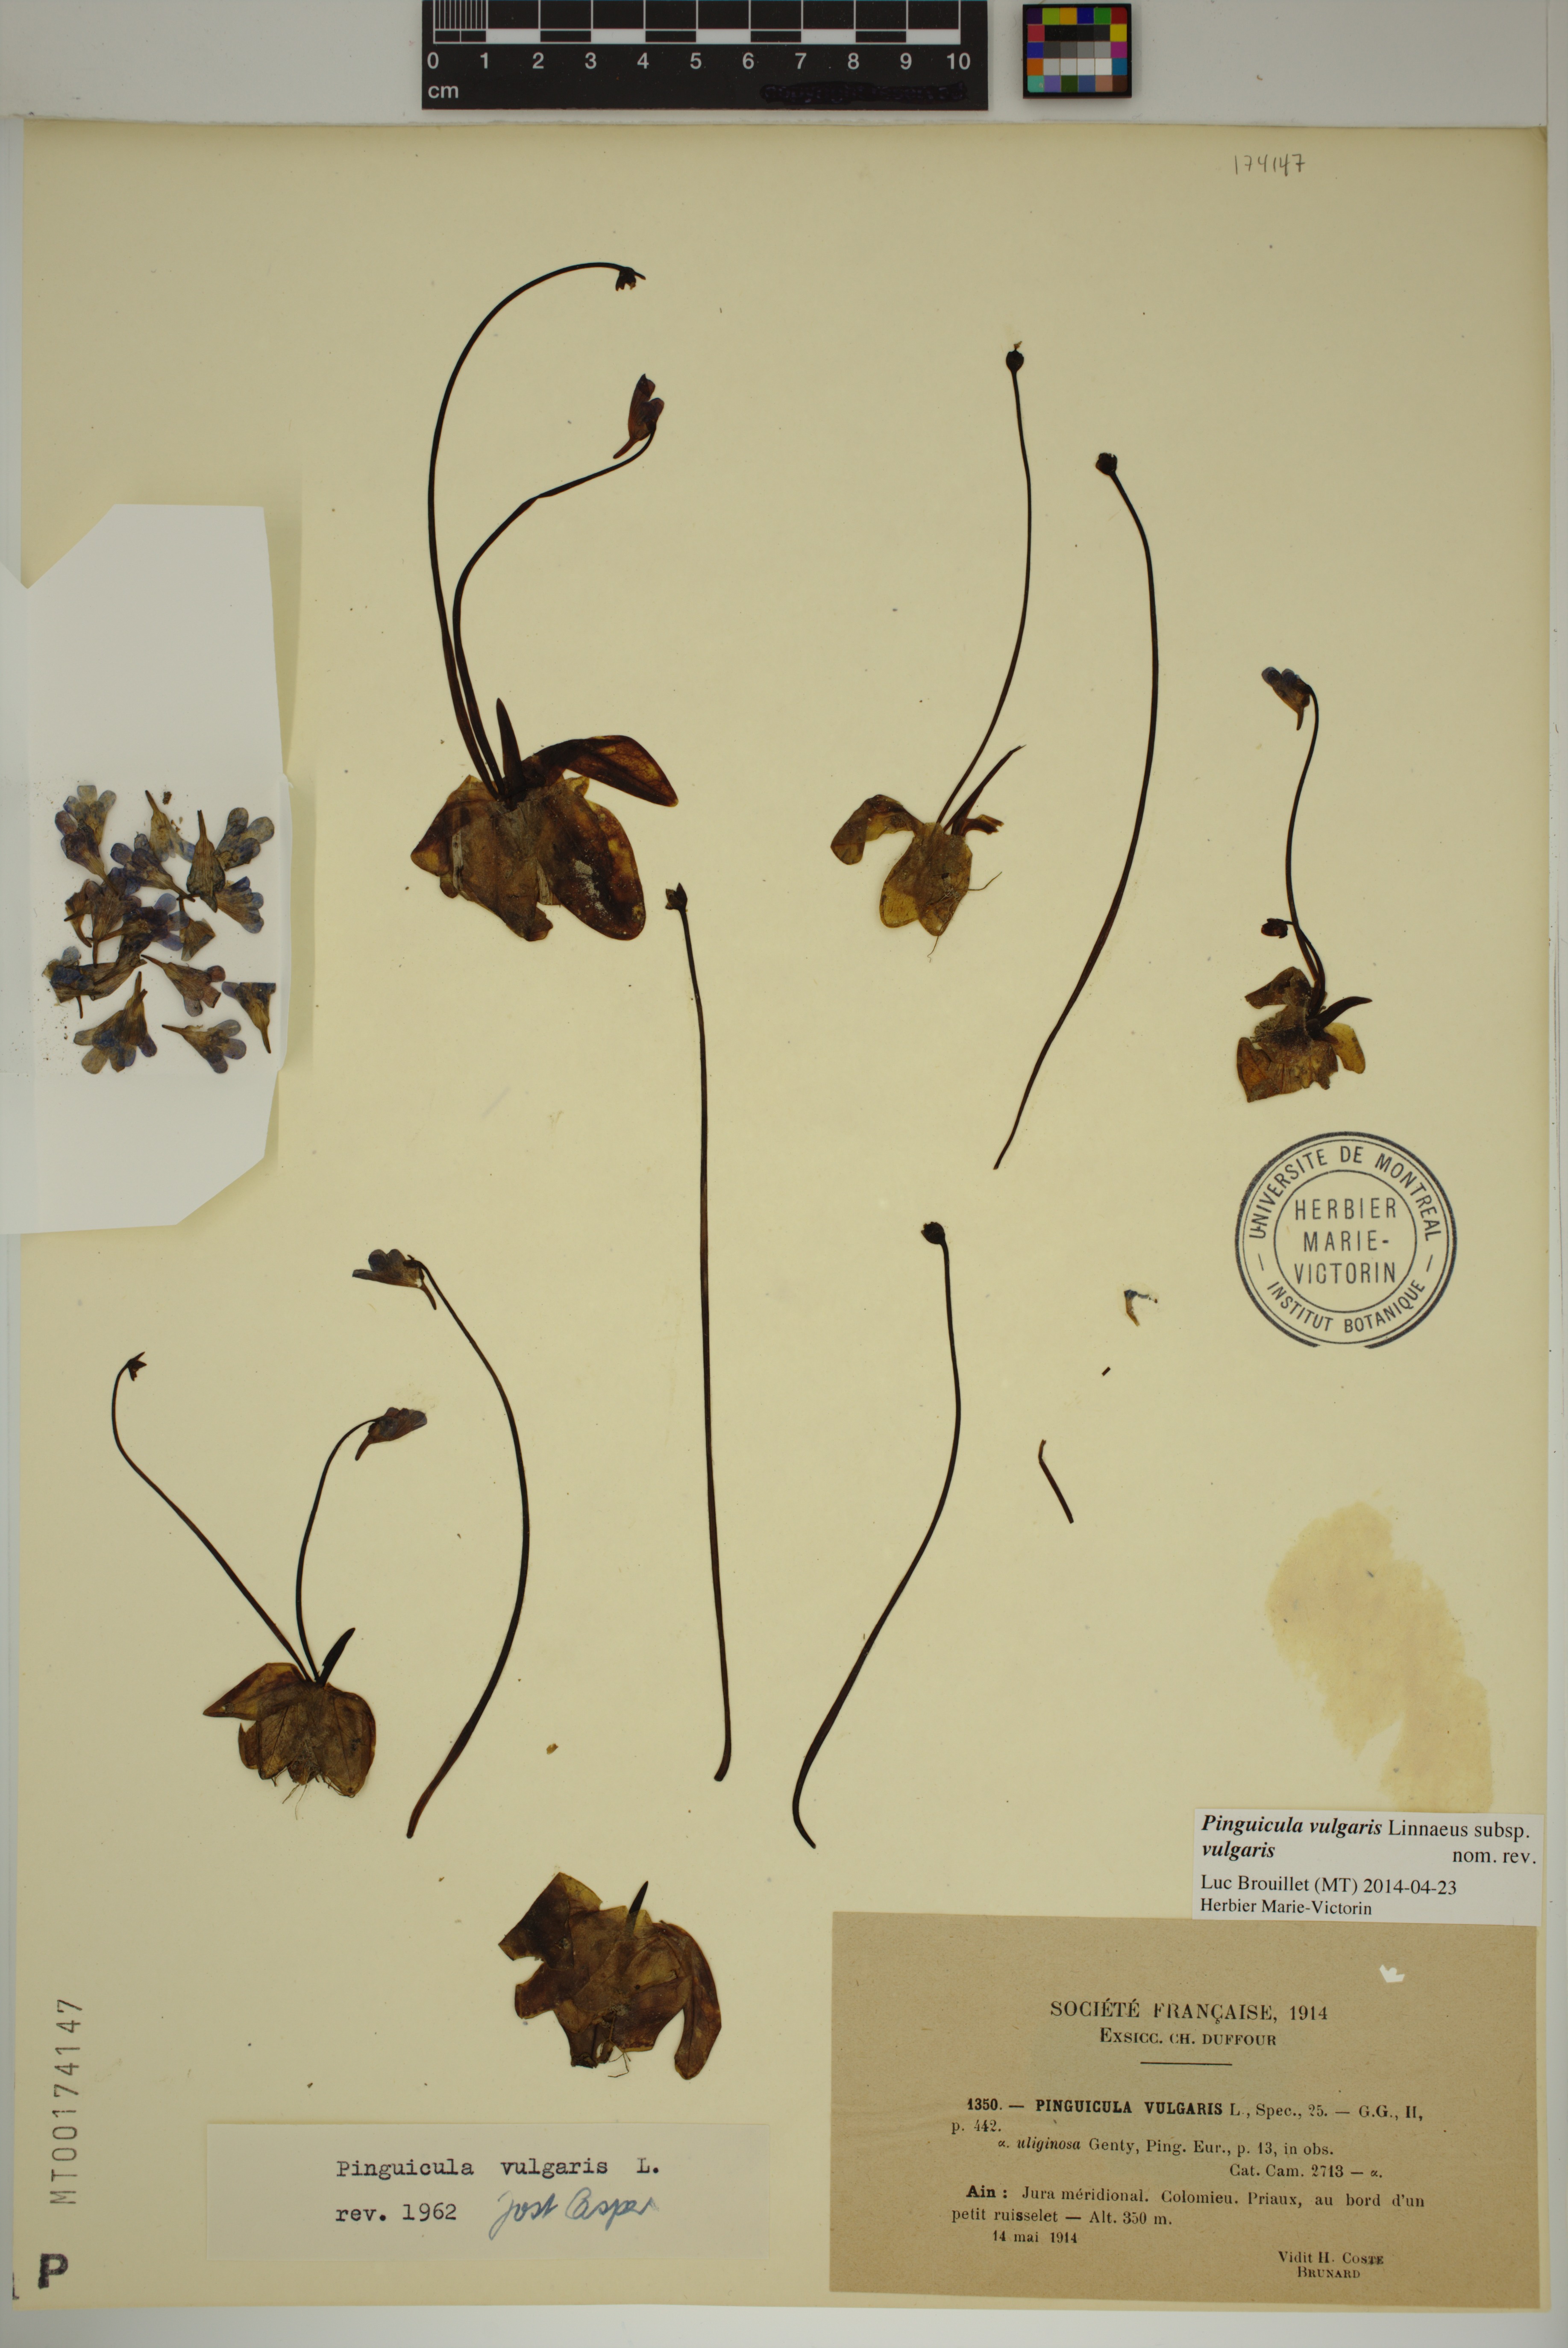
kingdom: Plantae
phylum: Tracheophyta
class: Magnoliopsida
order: Lamiales
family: Lentibulariaceae
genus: Pinguicula
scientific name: Pinguicula vulgaris
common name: Common butterwort
